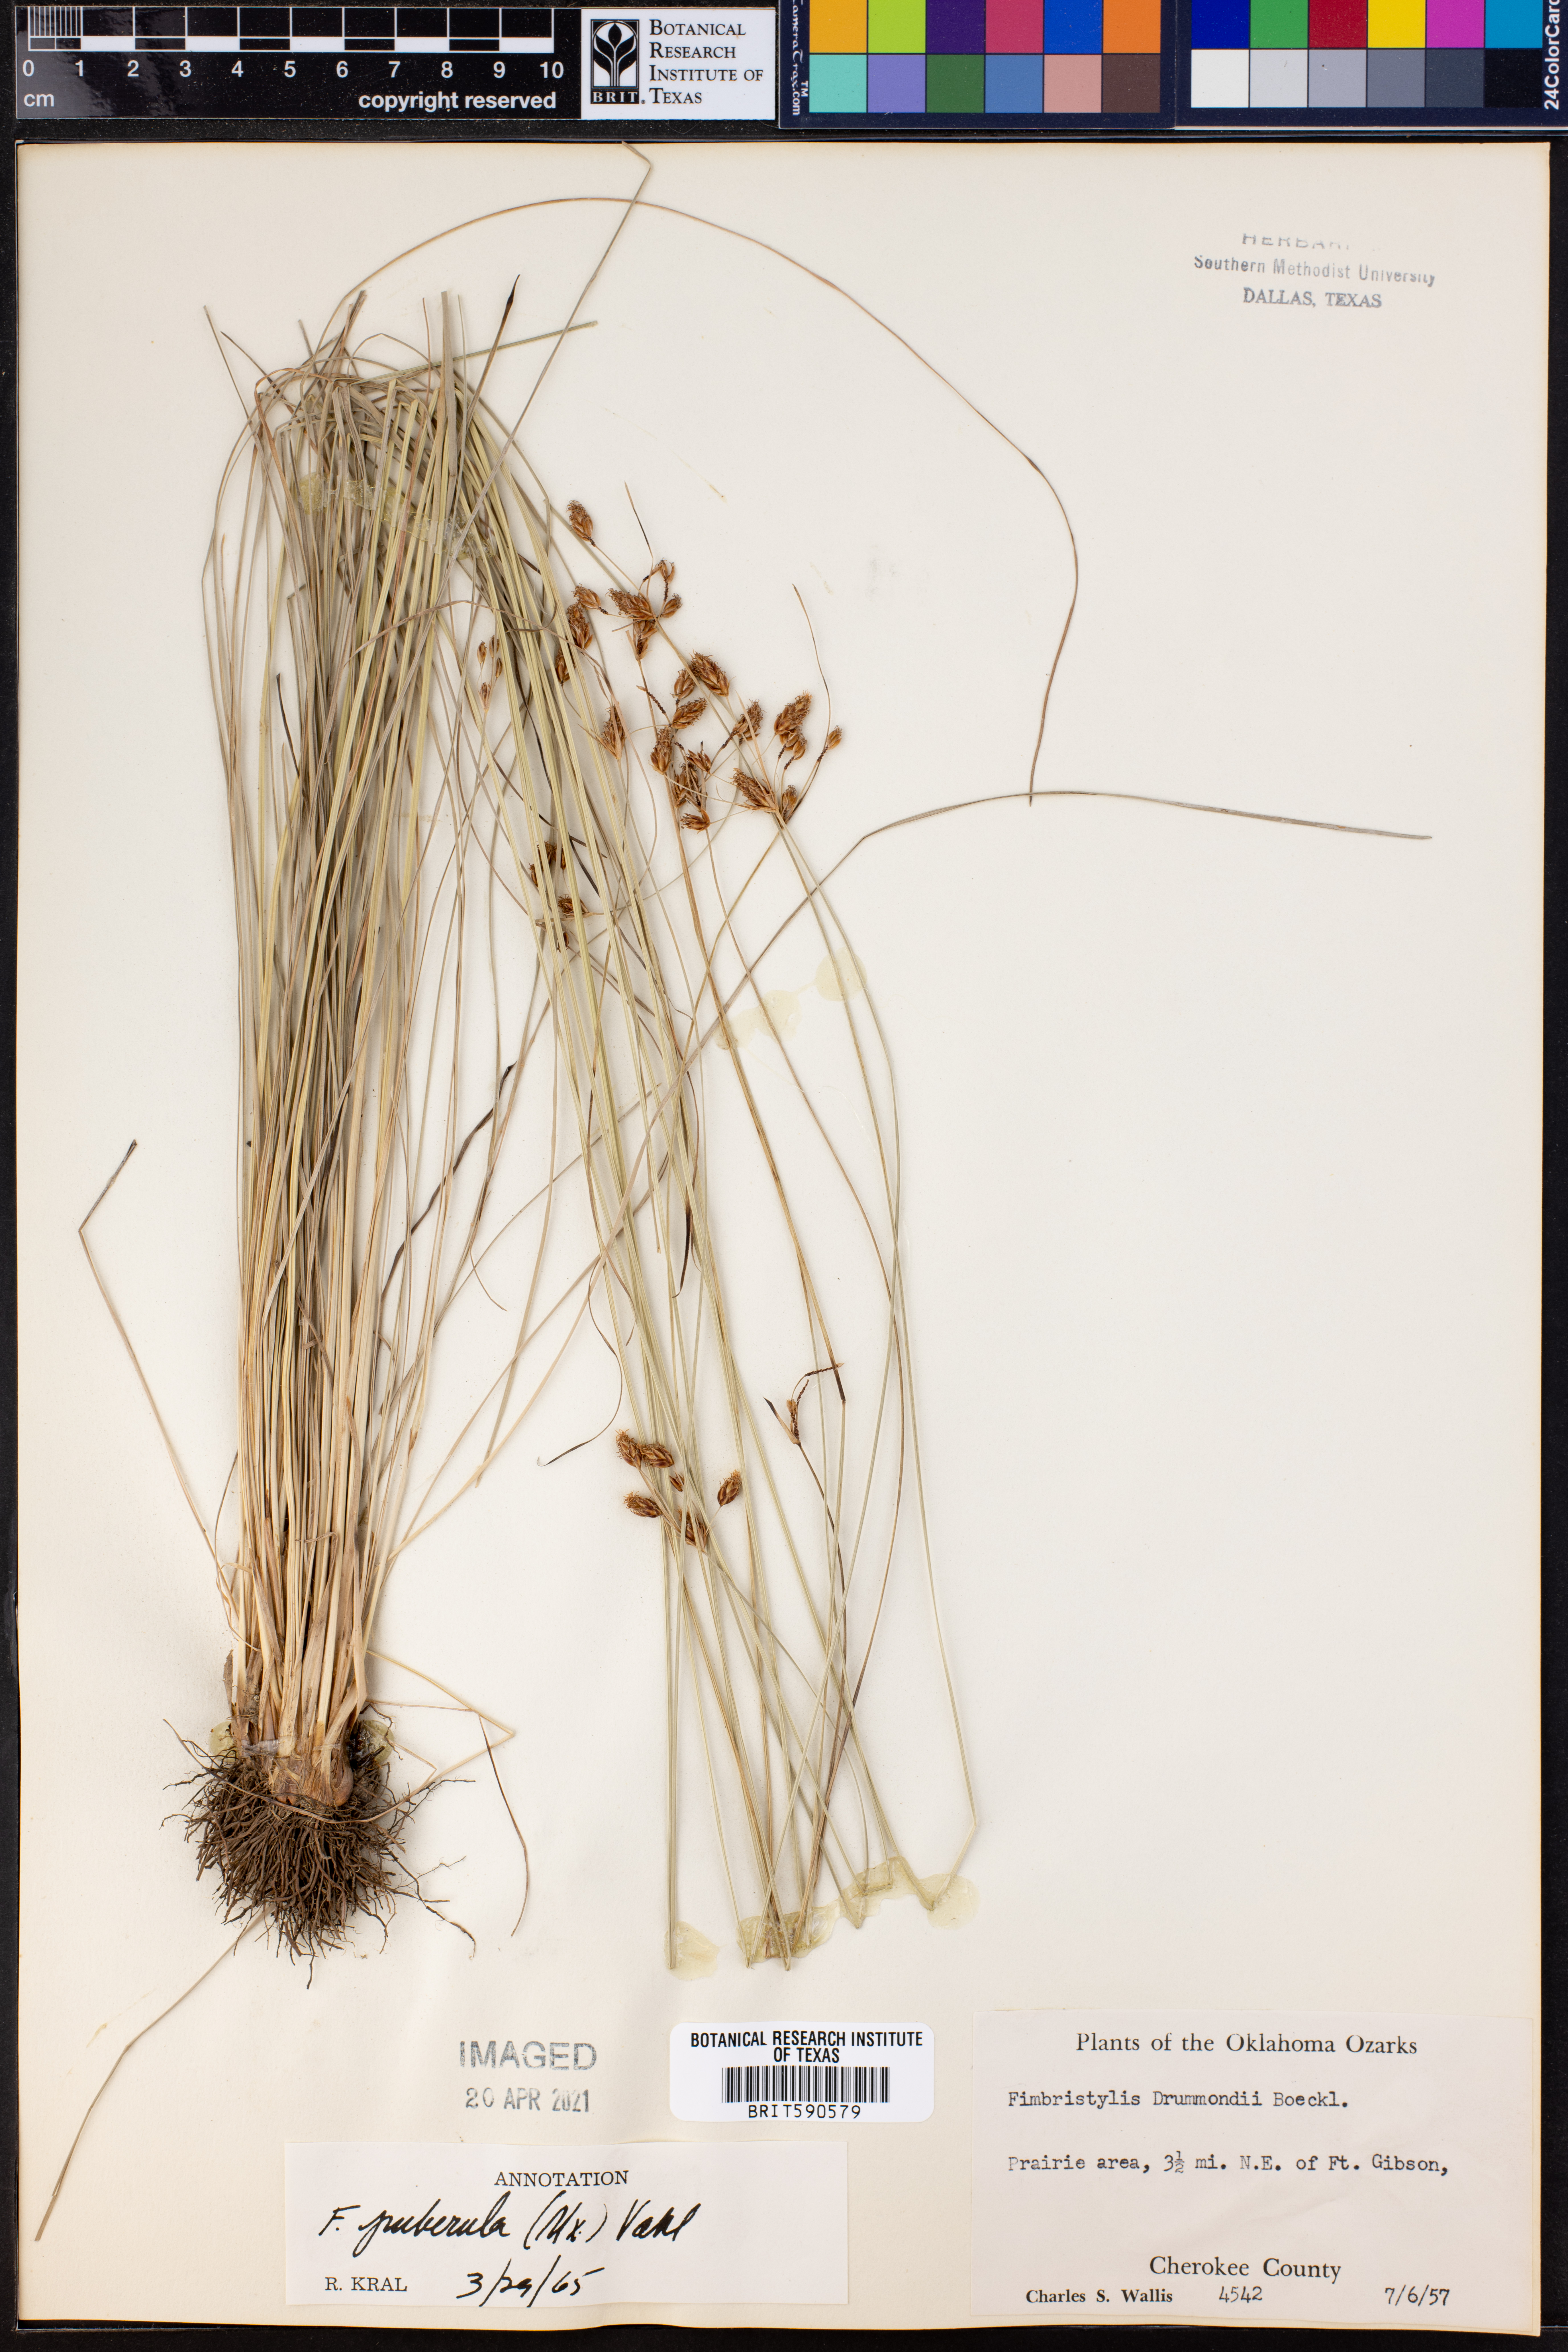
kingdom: Plantae
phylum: Tracheophyta
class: Liliopsida
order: Poales
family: Cyperaceae
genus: Fimbristylis
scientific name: Fimbristylis puberula
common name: Hairy fimbristylis
